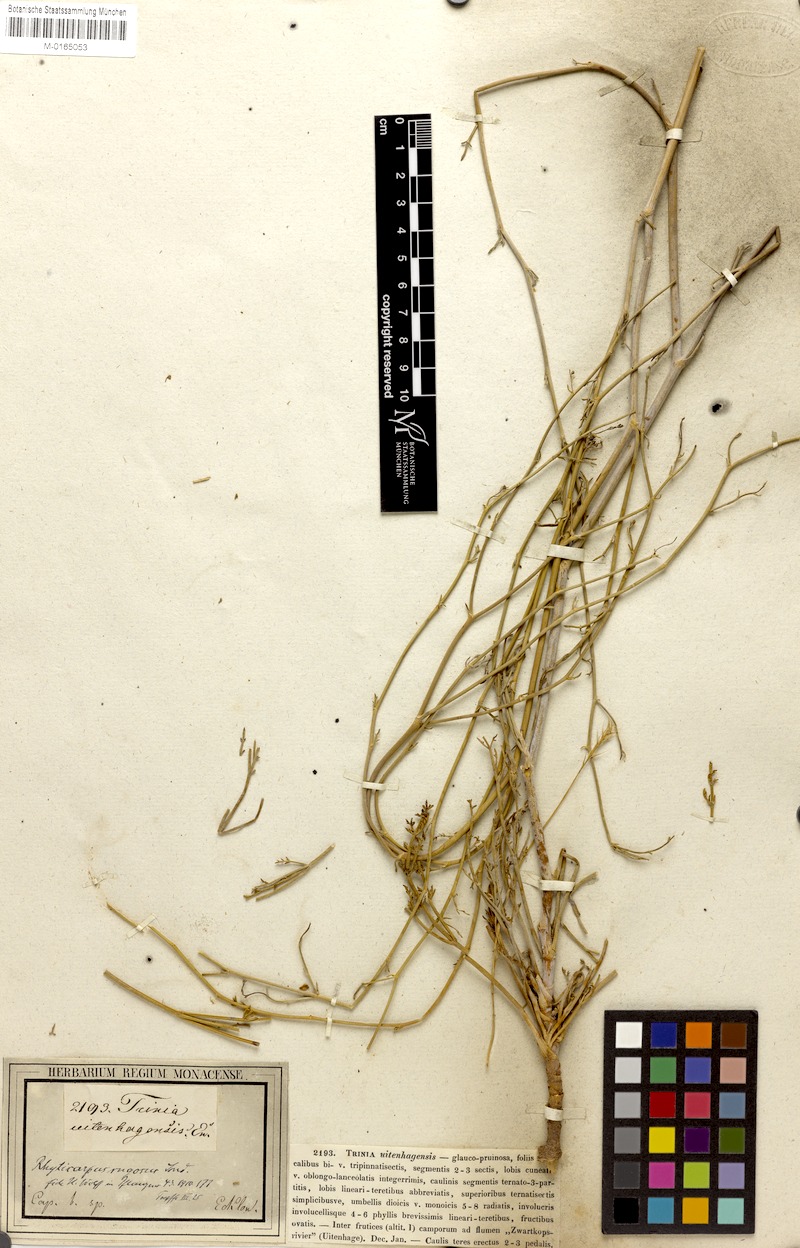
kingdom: Plantae
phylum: Tracheophyta
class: Magnoliopsida
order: Apiales
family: Apiaceae
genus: Anginon
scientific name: Anginon rugosum
